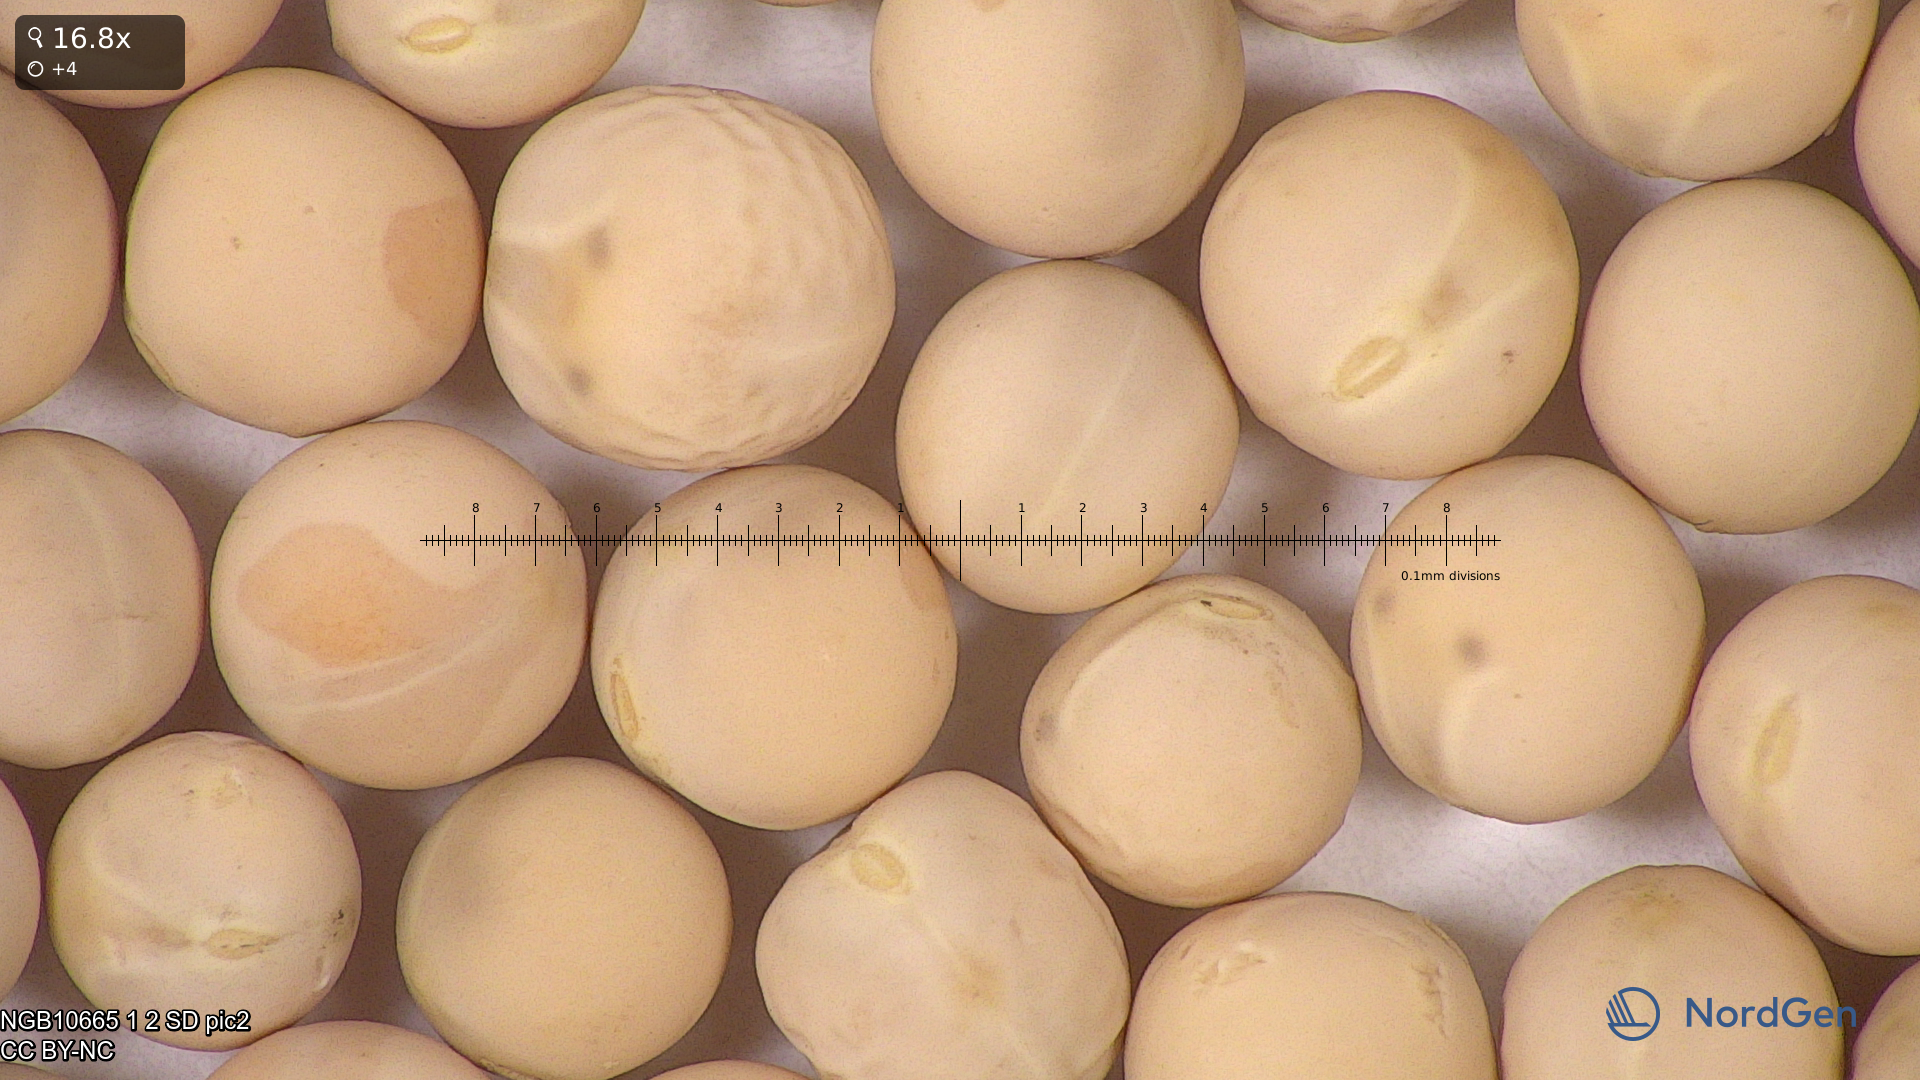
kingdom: Plantae
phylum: Tracheophyta
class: Magnoliopsida
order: Fabales
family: Fabaceae
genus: Lathyrus
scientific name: Lathyrus oleraceus
